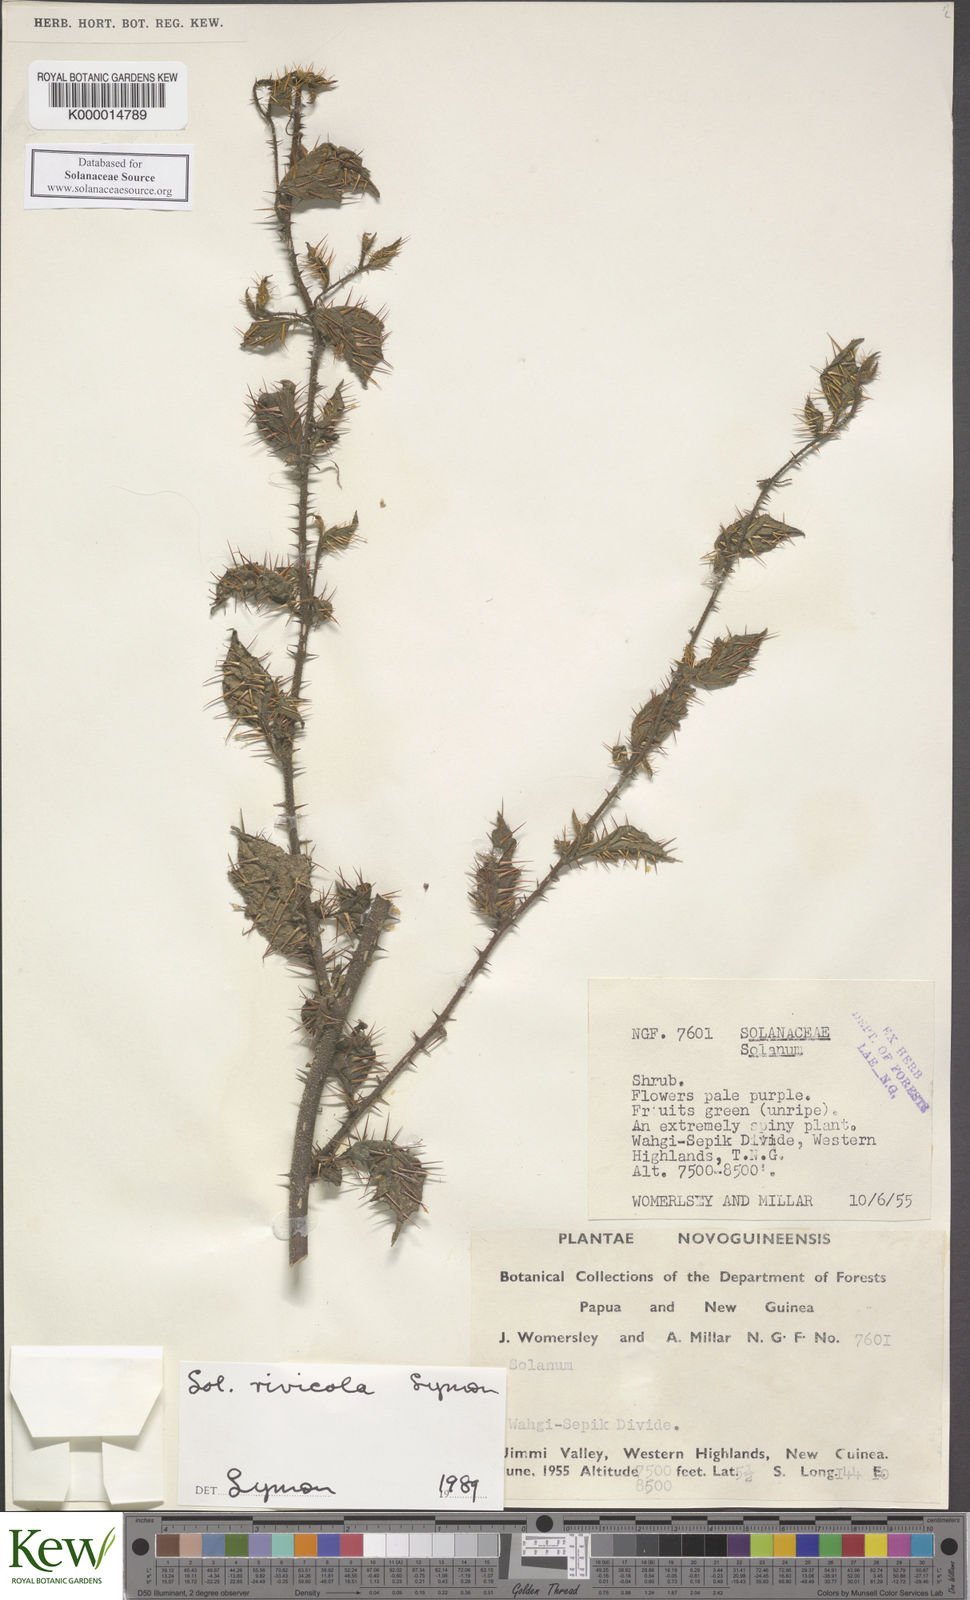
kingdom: Plantae
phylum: Tracheophyta
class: Magnoliopsida
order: Solanales
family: Solanaceae
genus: Solanum
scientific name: Solanum rivicola
